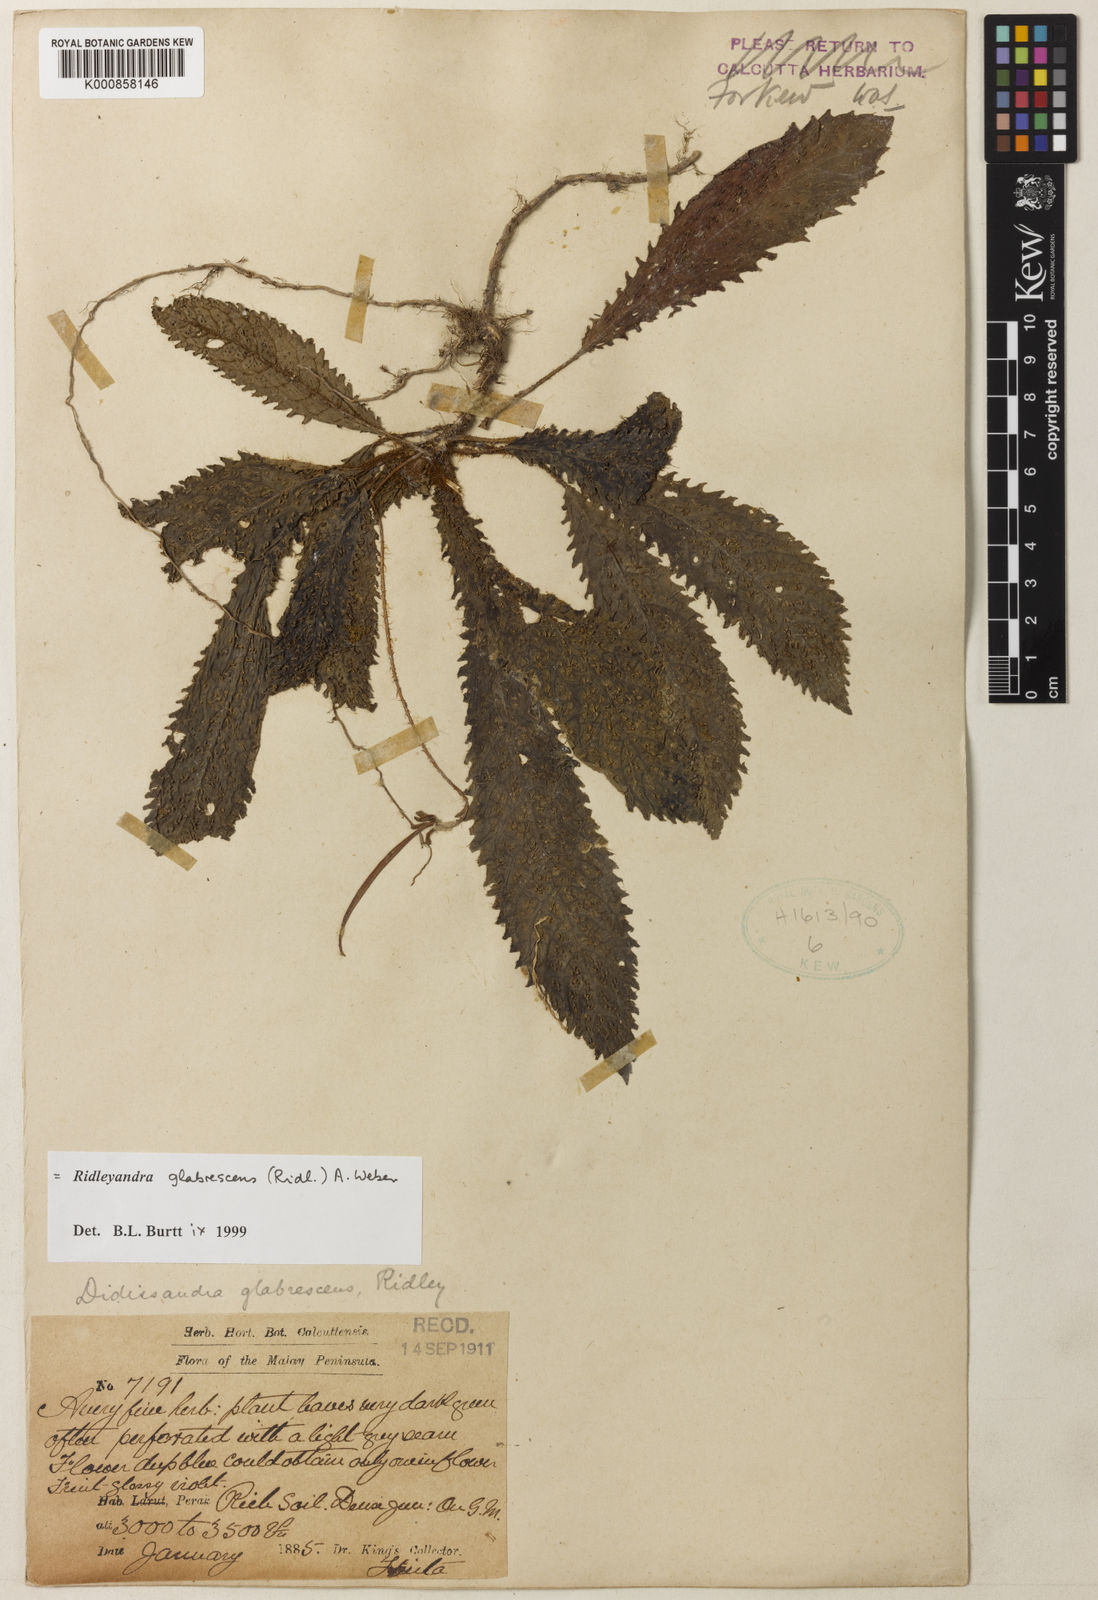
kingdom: Plantae
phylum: Tracheophyta
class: Magnoliopsida
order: Lamiales
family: Gesneriaceae
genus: Ridleyandra
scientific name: Ridleyandra glabrescens
